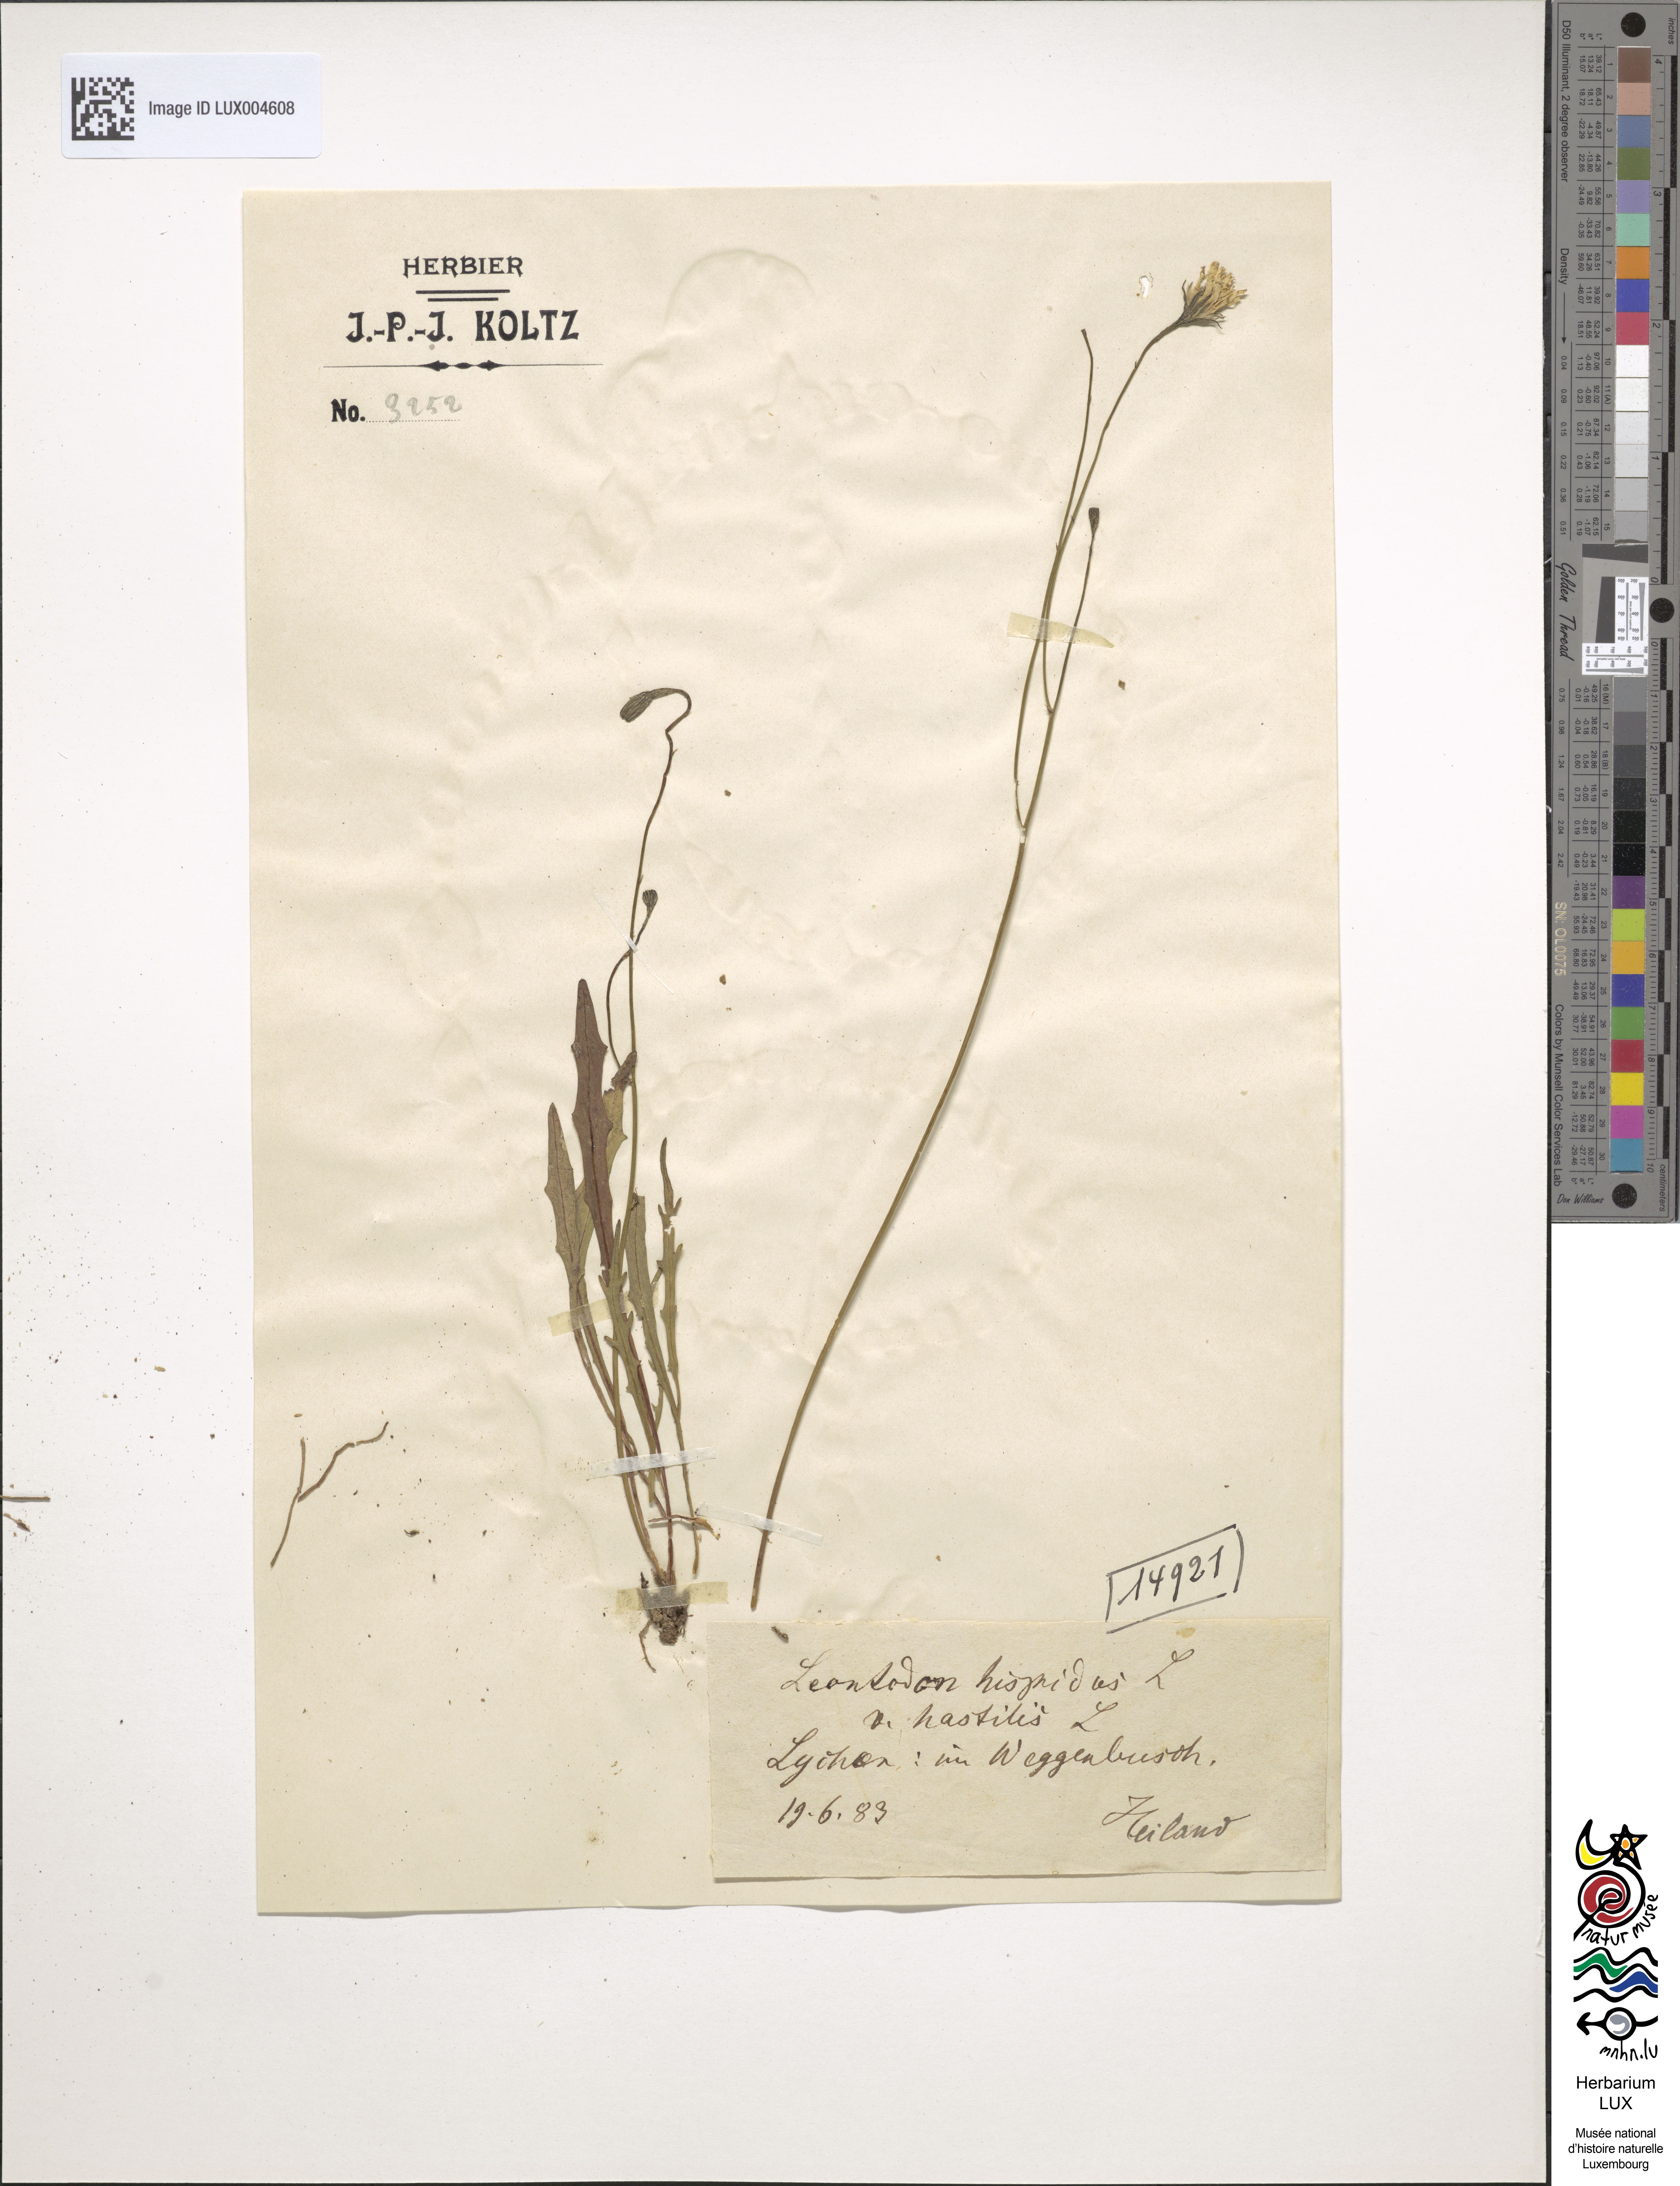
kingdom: Plantae
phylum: Tracheophyta
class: Magnoliopsida
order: Asterales
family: Asteraceae
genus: Leontodon
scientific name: Leontodon hispidus
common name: Rough hawkbit
